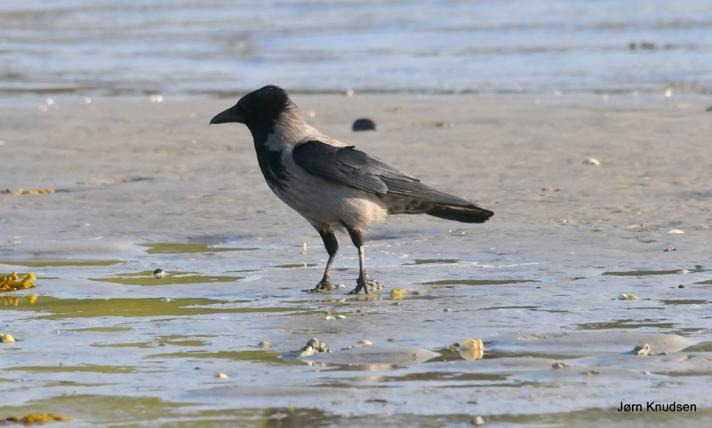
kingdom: Animalia
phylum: Chordata
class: Aves
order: Passeriformes
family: Corvidae
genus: Corvus
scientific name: Corvus cornix
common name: Gråkrage
